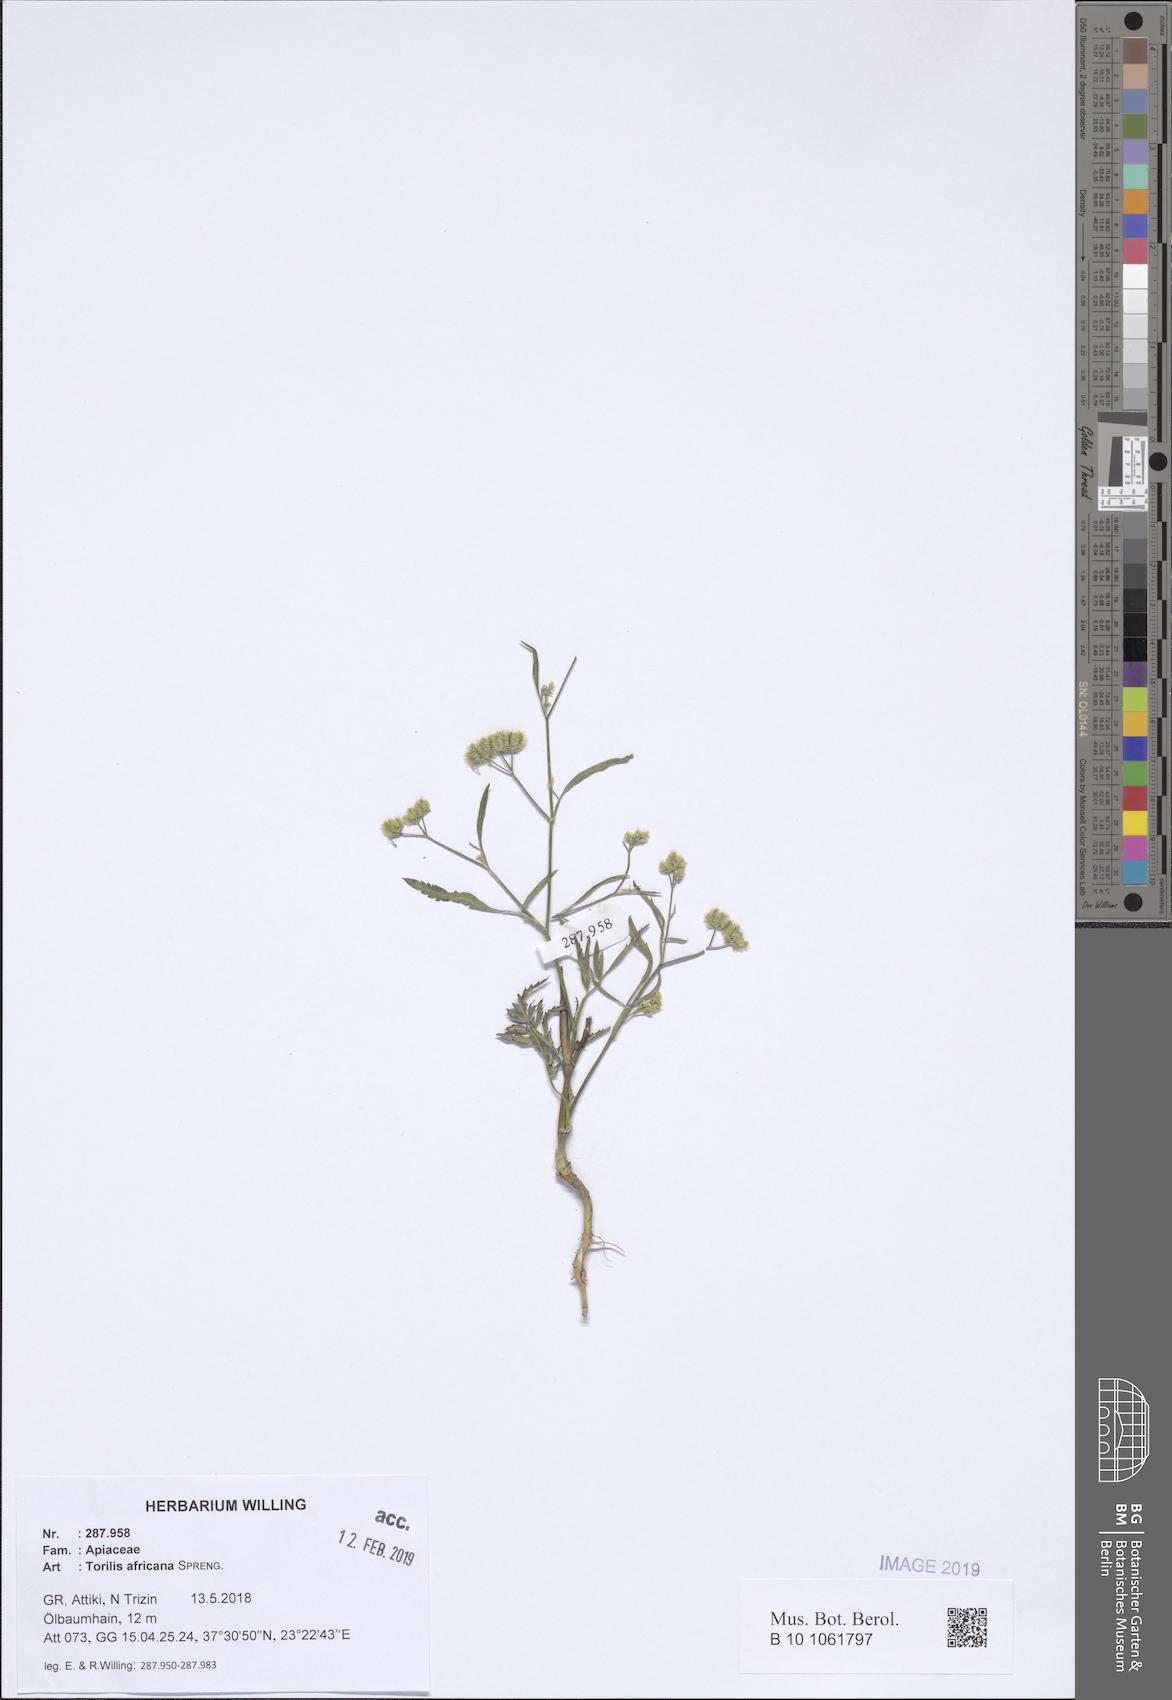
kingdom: Plantae
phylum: Tracheophyta
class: Magnoliopsida
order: Apiales
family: Apiaceae
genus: Torilis
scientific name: Torilis africana
